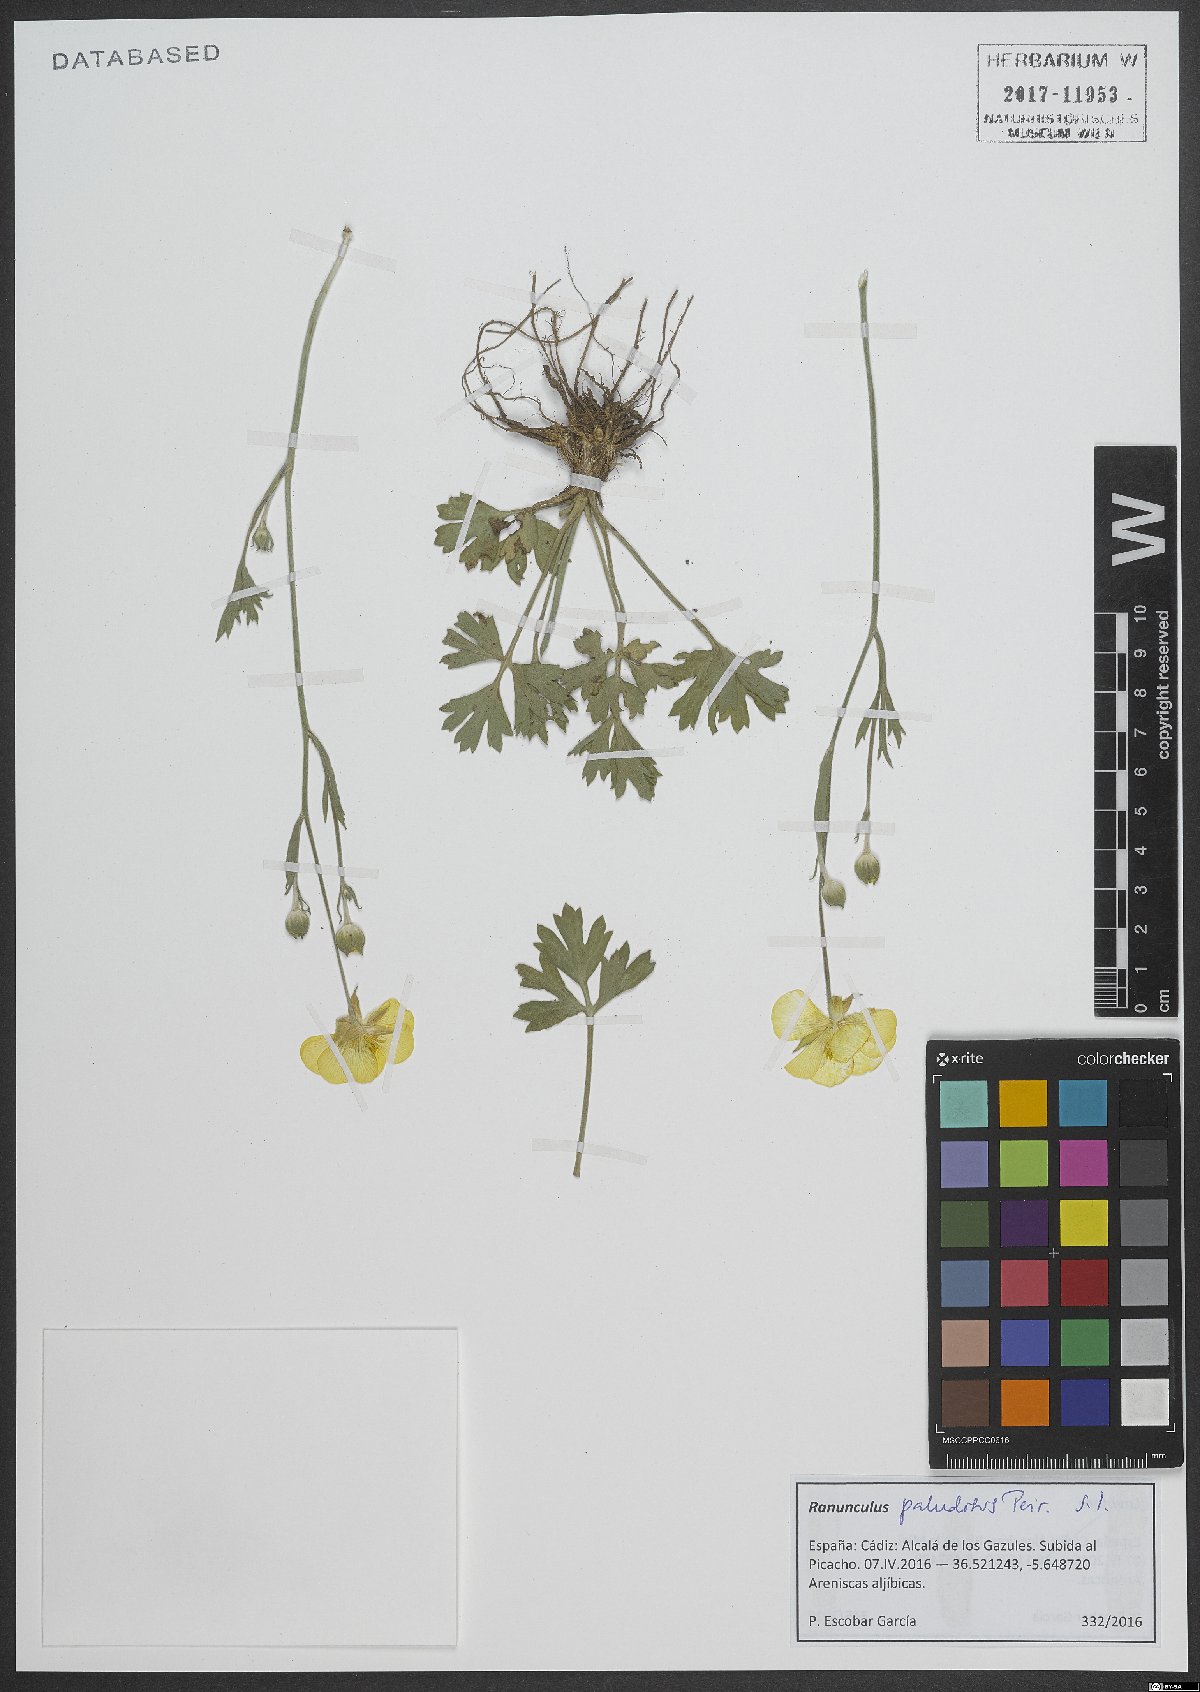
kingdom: Plantae
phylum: Tracheophyta
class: Magnoliopsida
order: Ranunculales
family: Ranunculaceae
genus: Ranunculus
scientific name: Ranunculus paludosus
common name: Jersey buttercup
